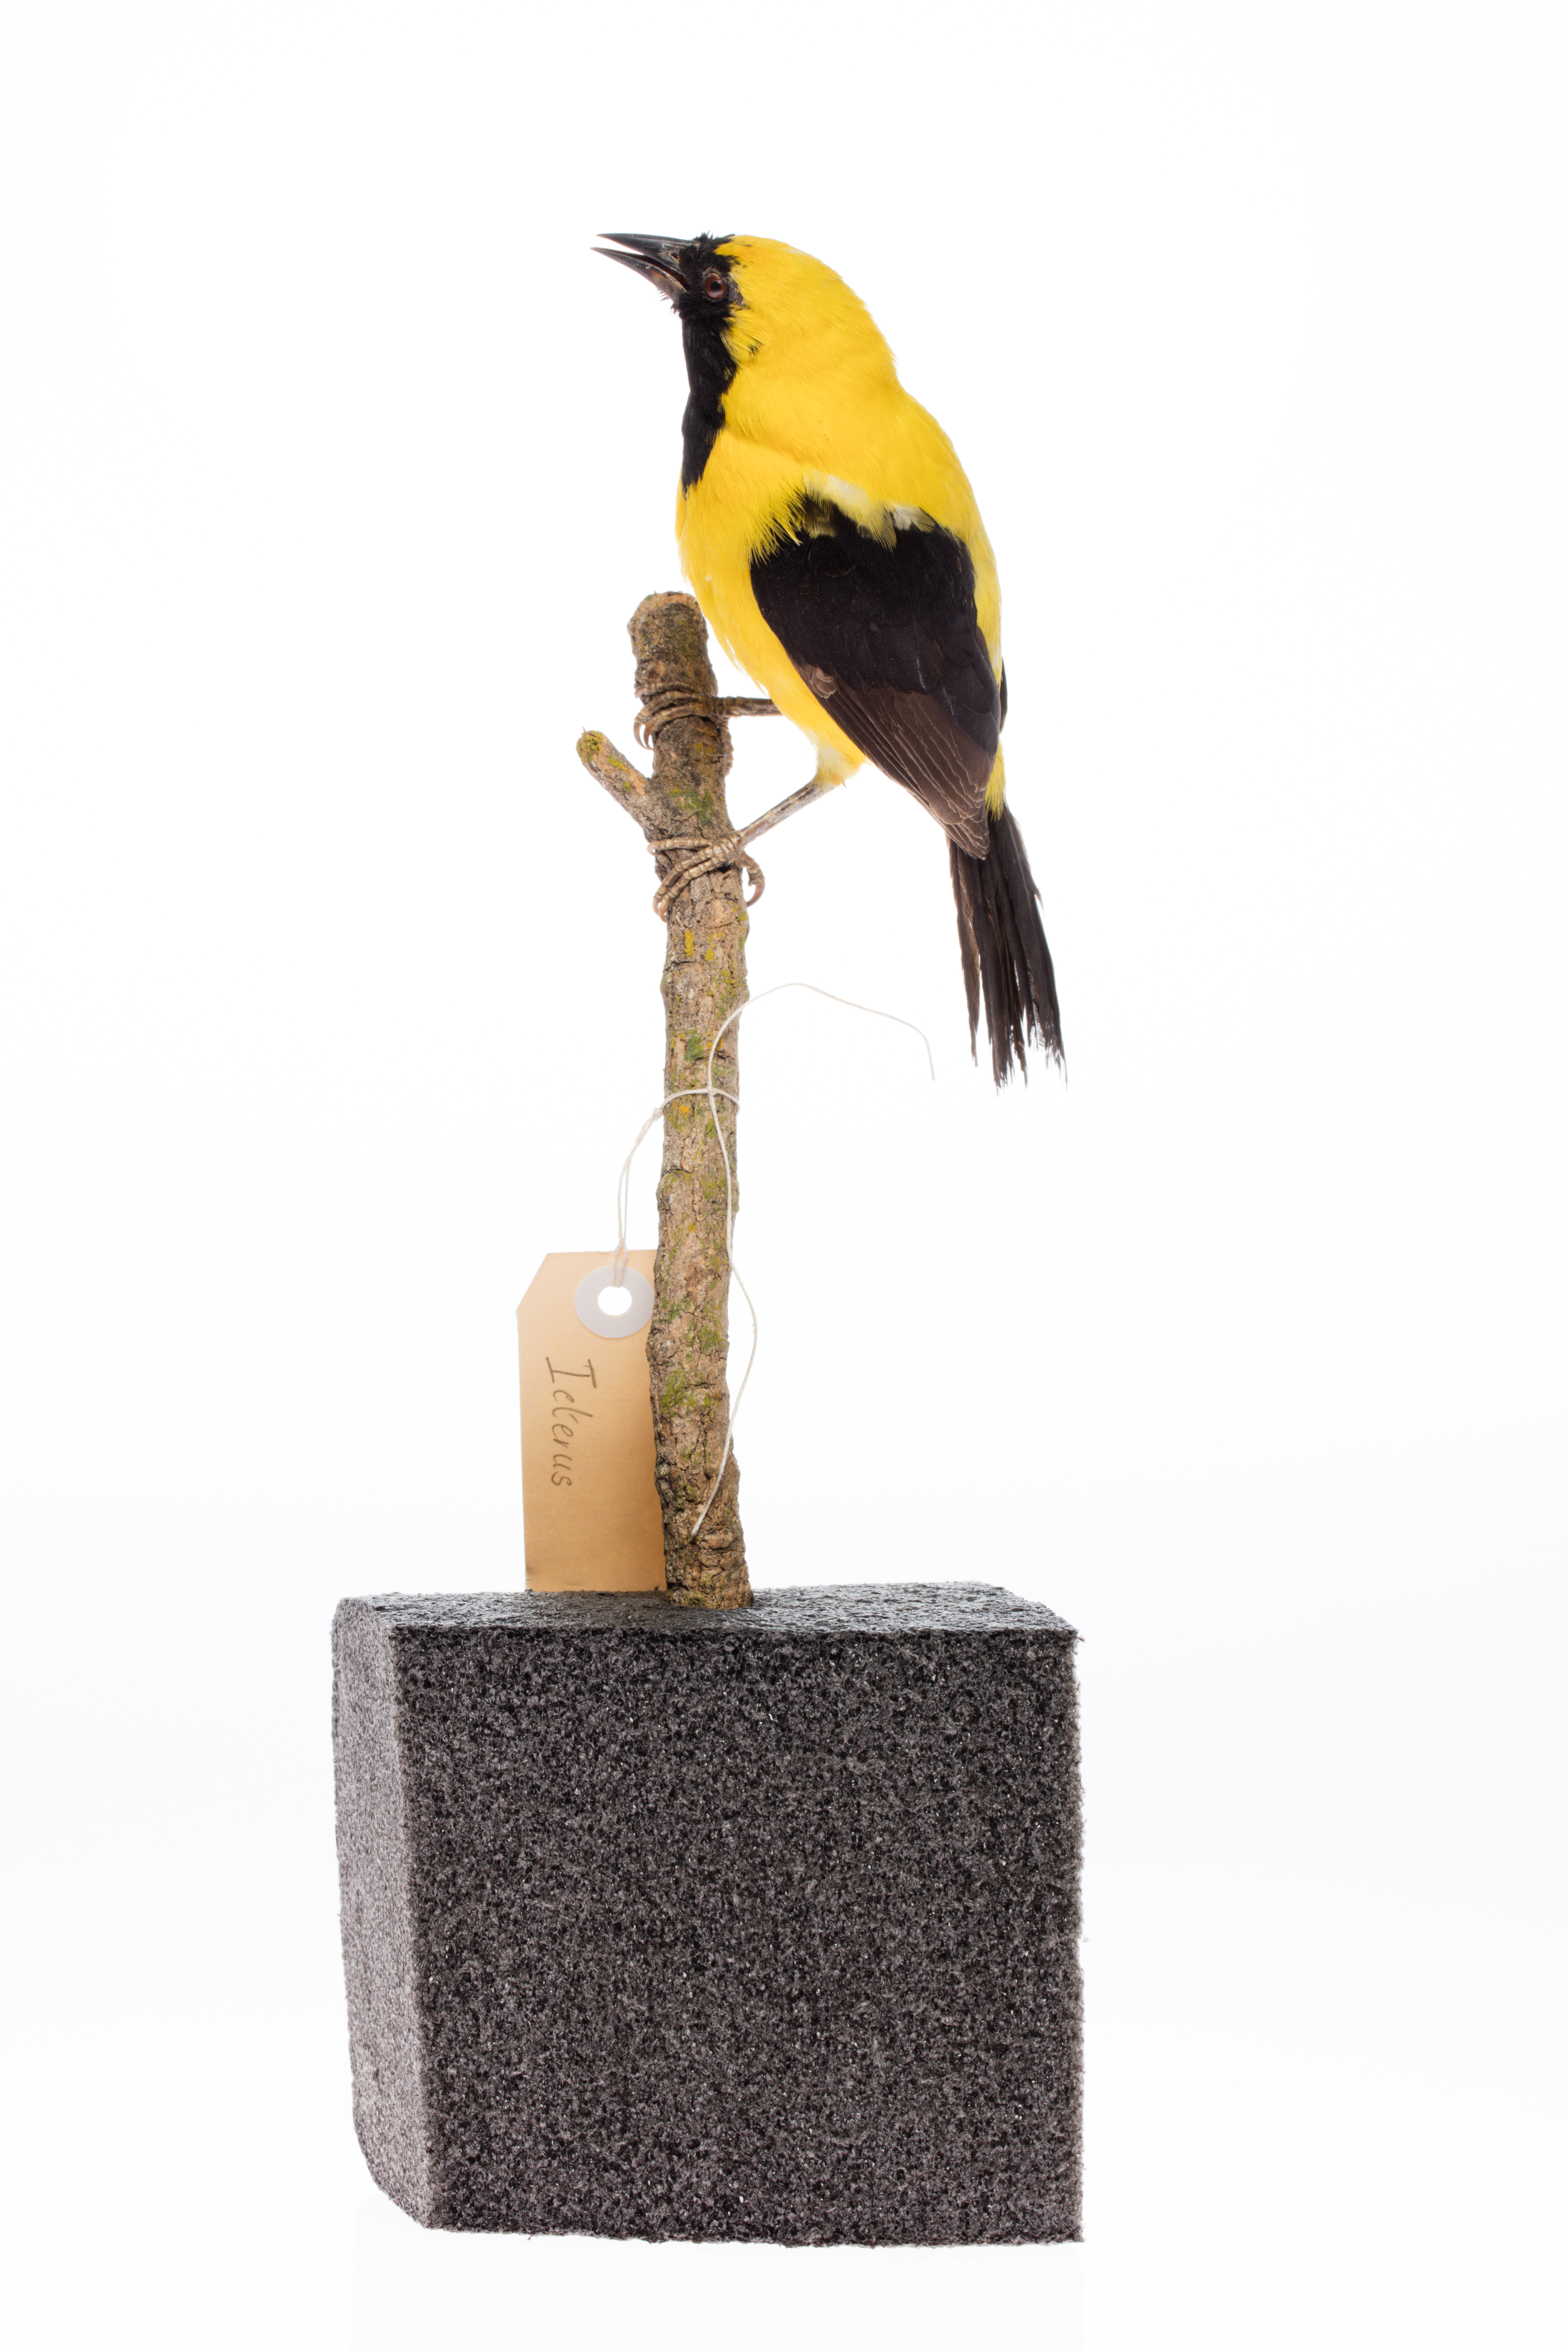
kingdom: Animalia
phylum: Chordata
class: Aves
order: Passeriformes
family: Icteridae
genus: Icterus
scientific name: Icterus chrysater
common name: Yellow-backed oriole
